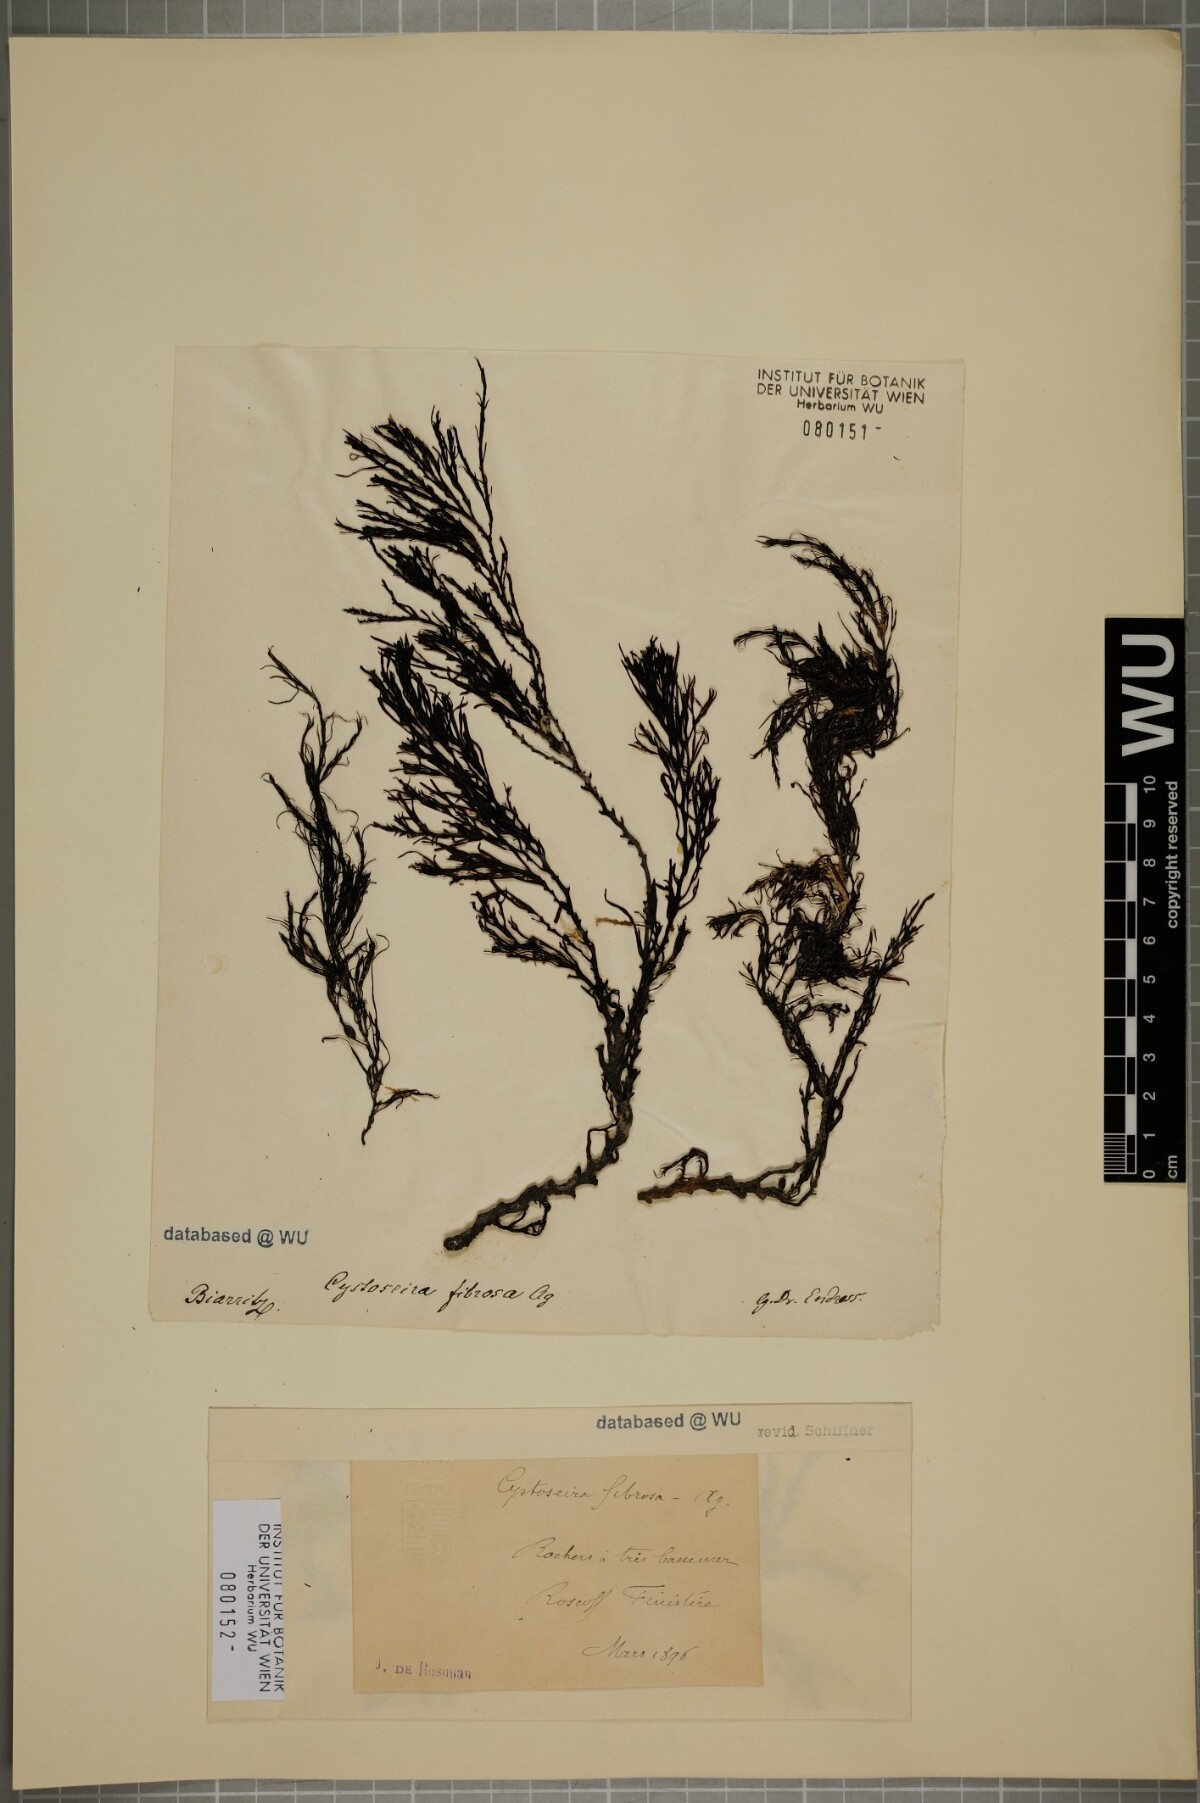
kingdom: Chromista
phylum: Ochrophyta
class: Phaeophyceae
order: Fucales
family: Sargassaceae
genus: Cystoseira
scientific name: Cystoseira Gongolaria baccata
